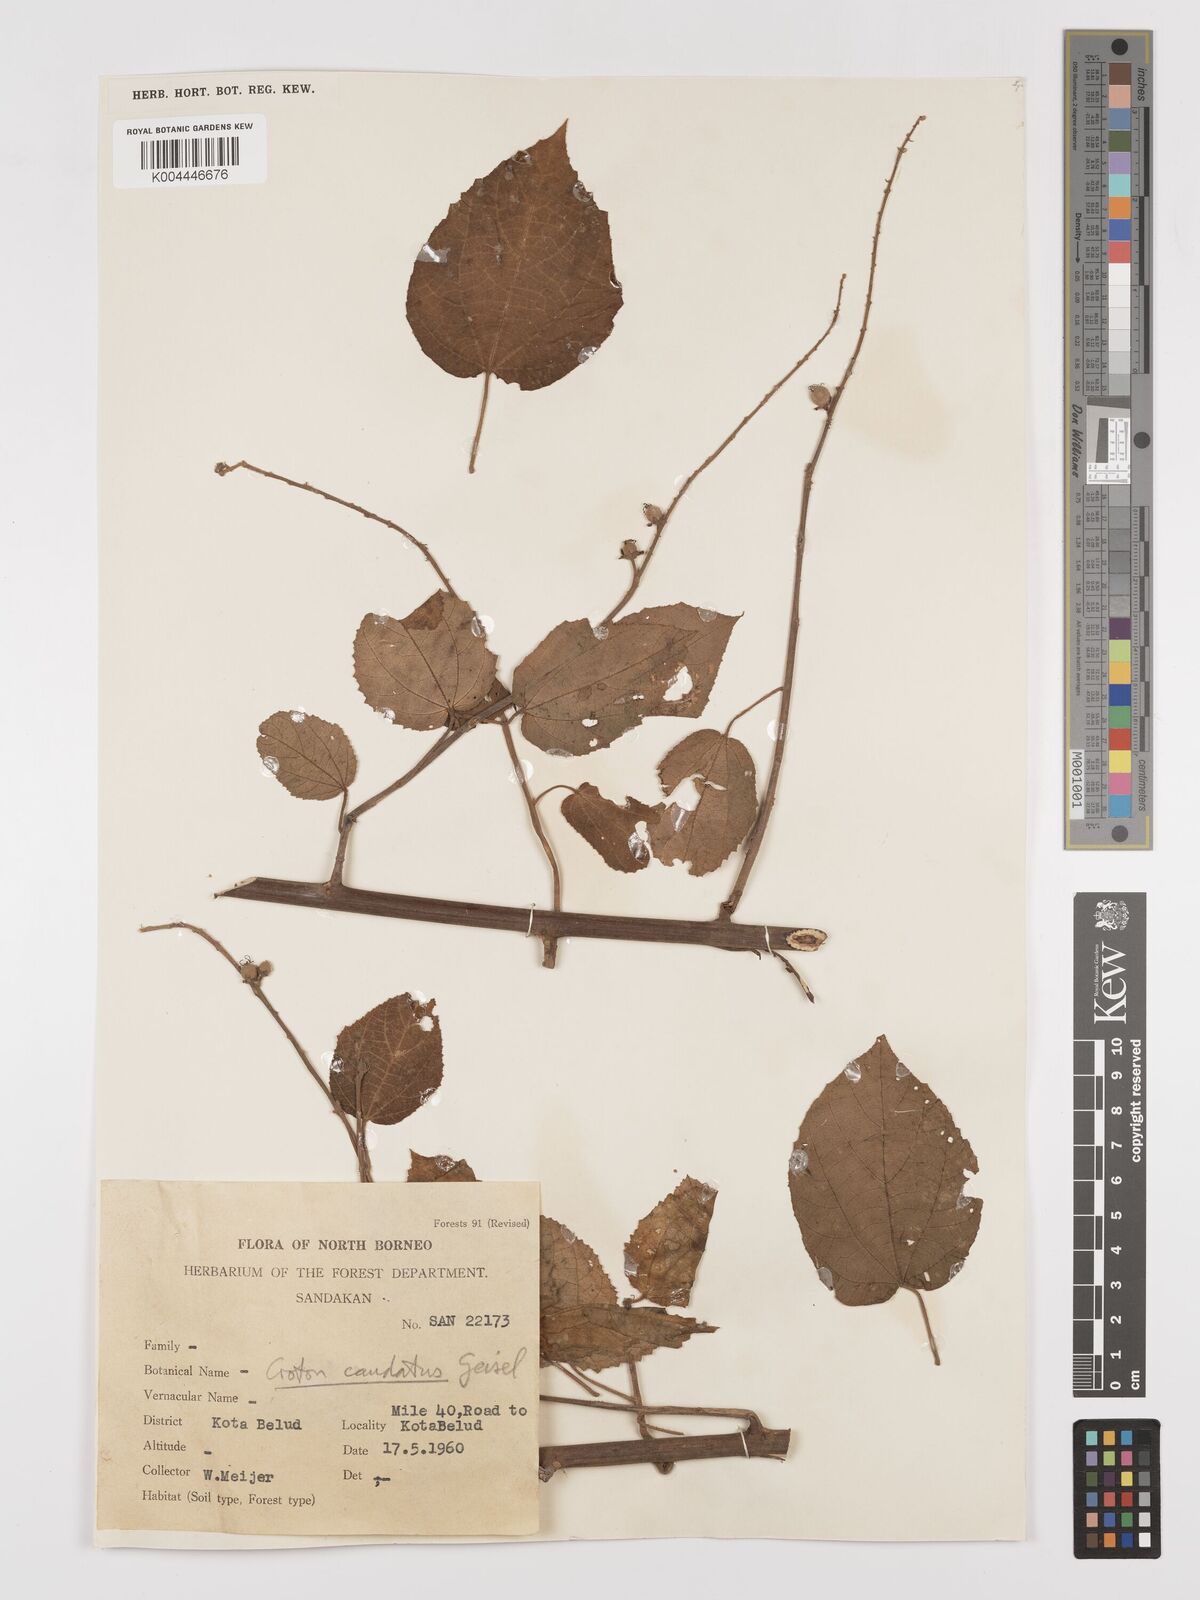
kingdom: Plantae
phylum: Tracheophyta
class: Magnoliopsida
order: Malpighiales
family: Euphorbiaceae
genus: Croton
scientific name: Croton caudatus
